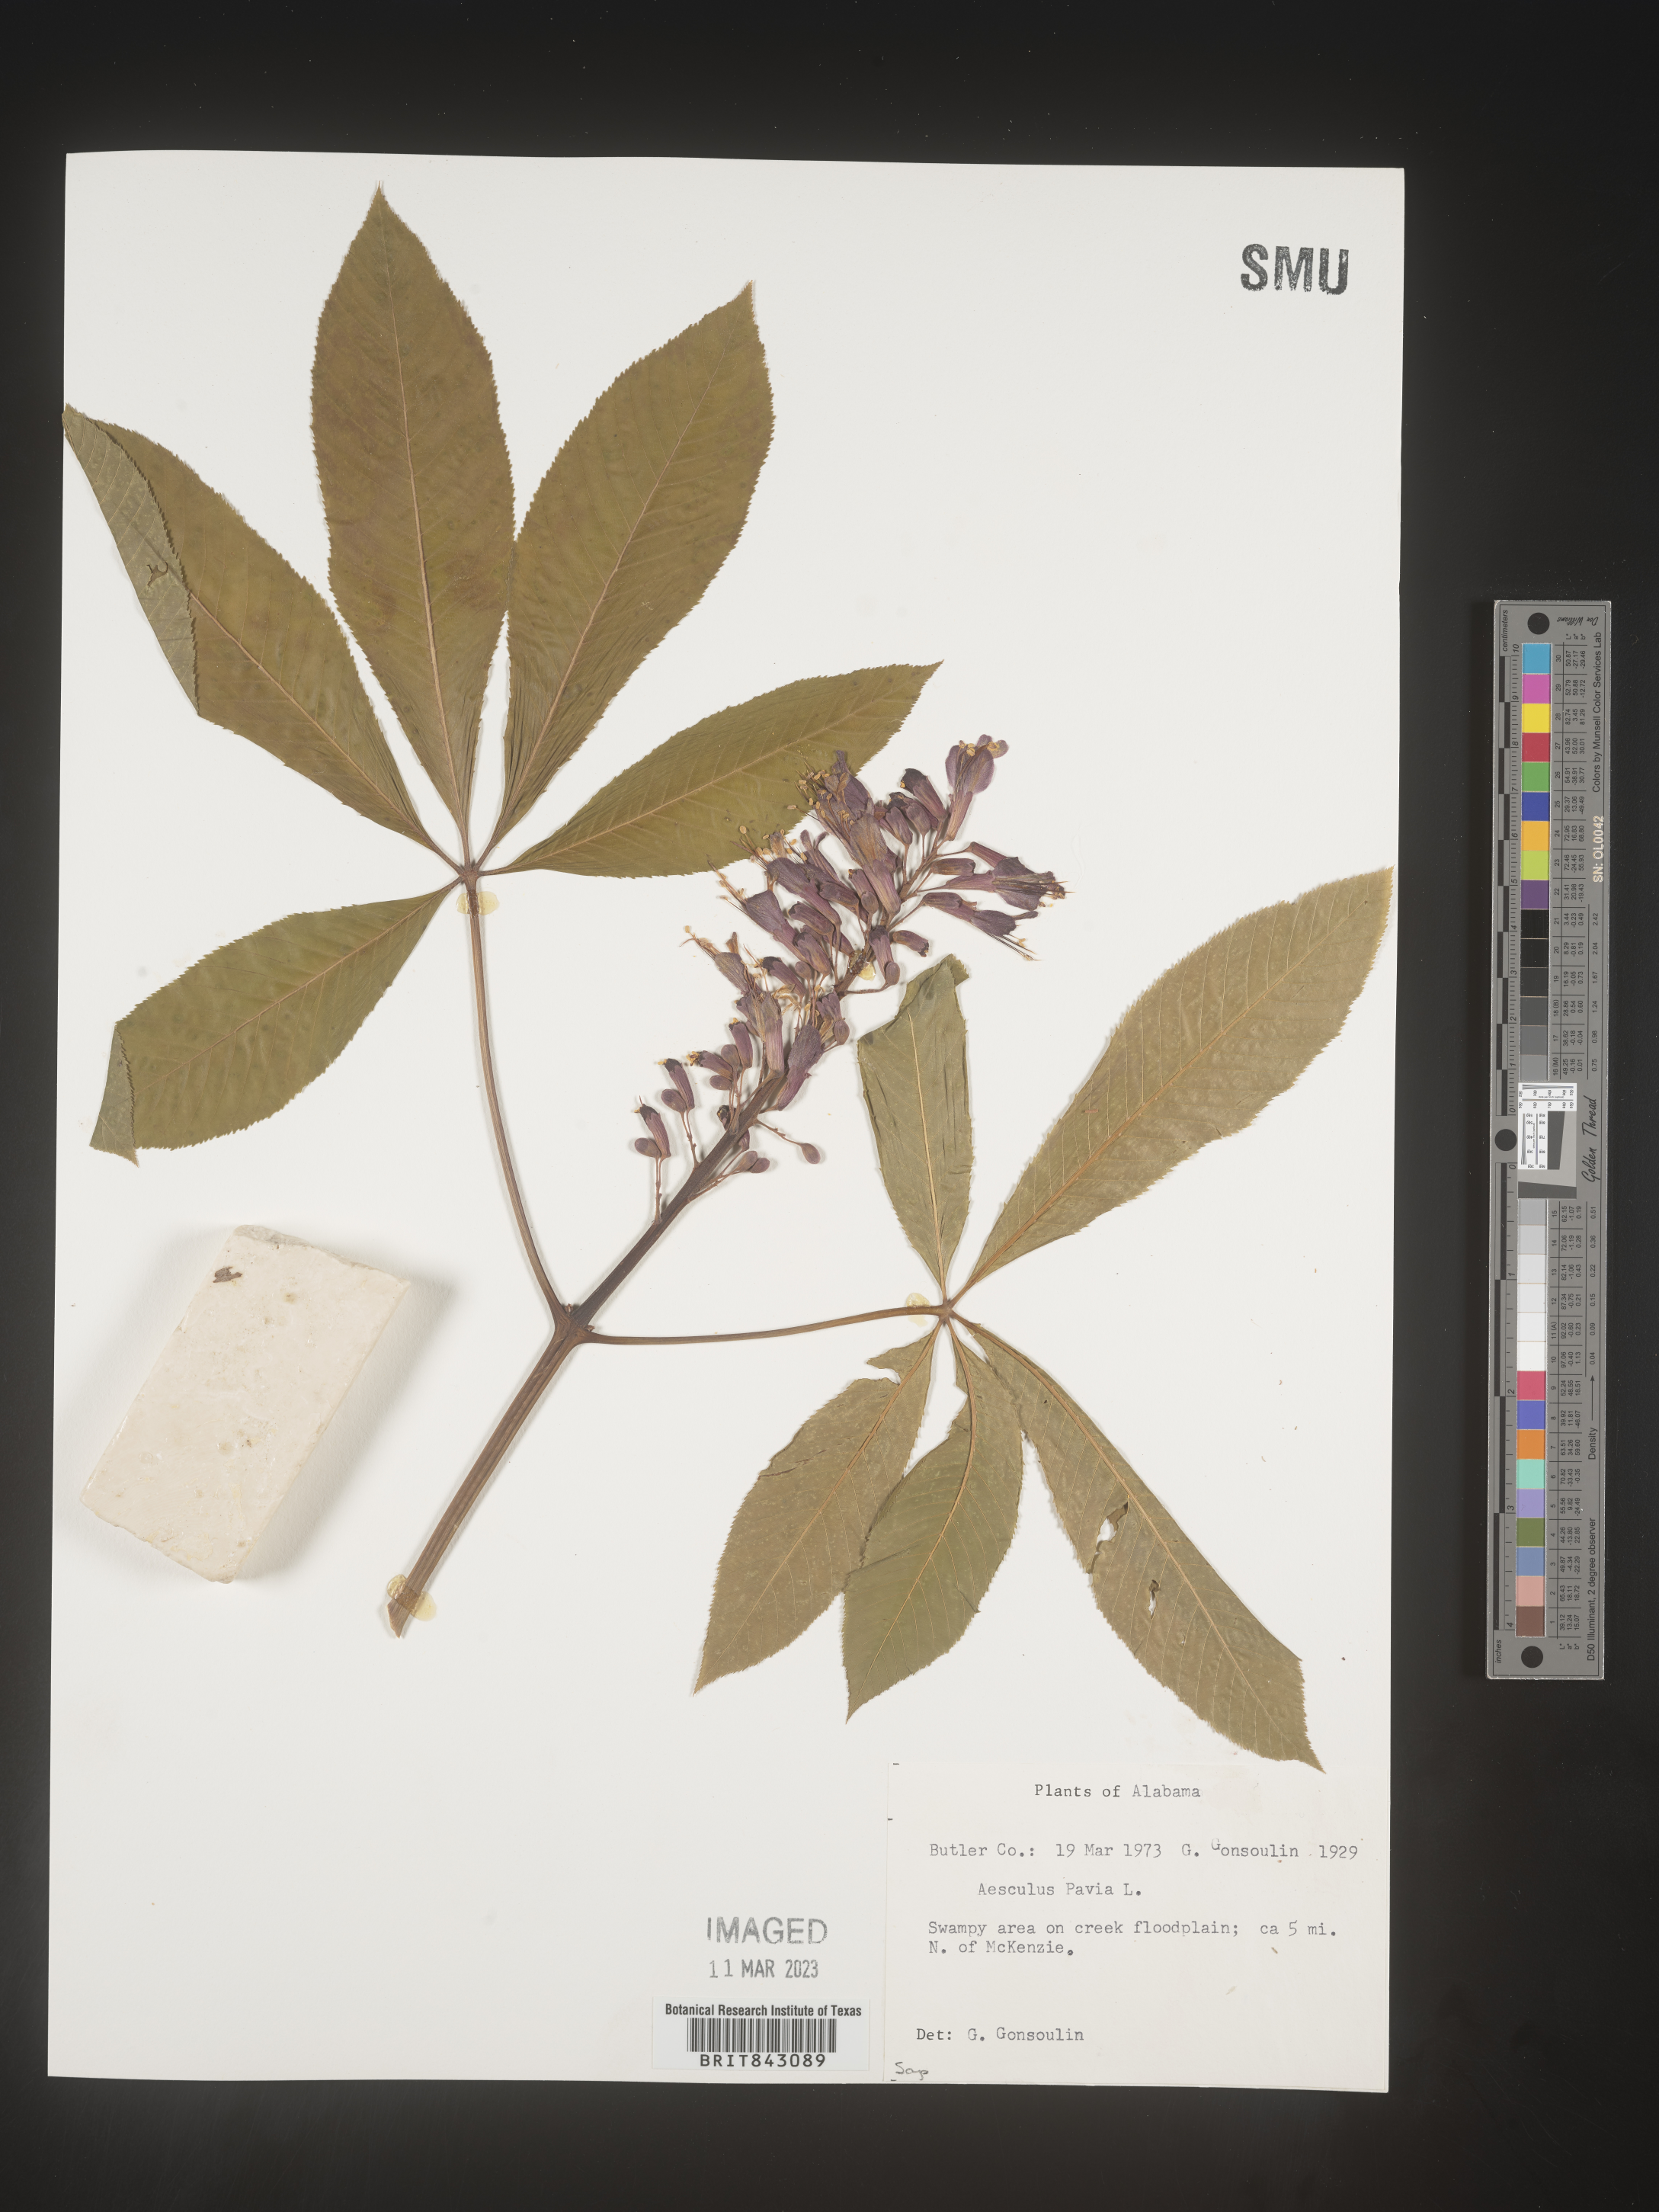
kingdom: Plantae
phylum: Tracheophyta
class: Magnoliopsida
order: Sapindales
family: Sapindaceae
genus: Aesculus
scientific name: Aesculus pavia
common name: Red buckeye
